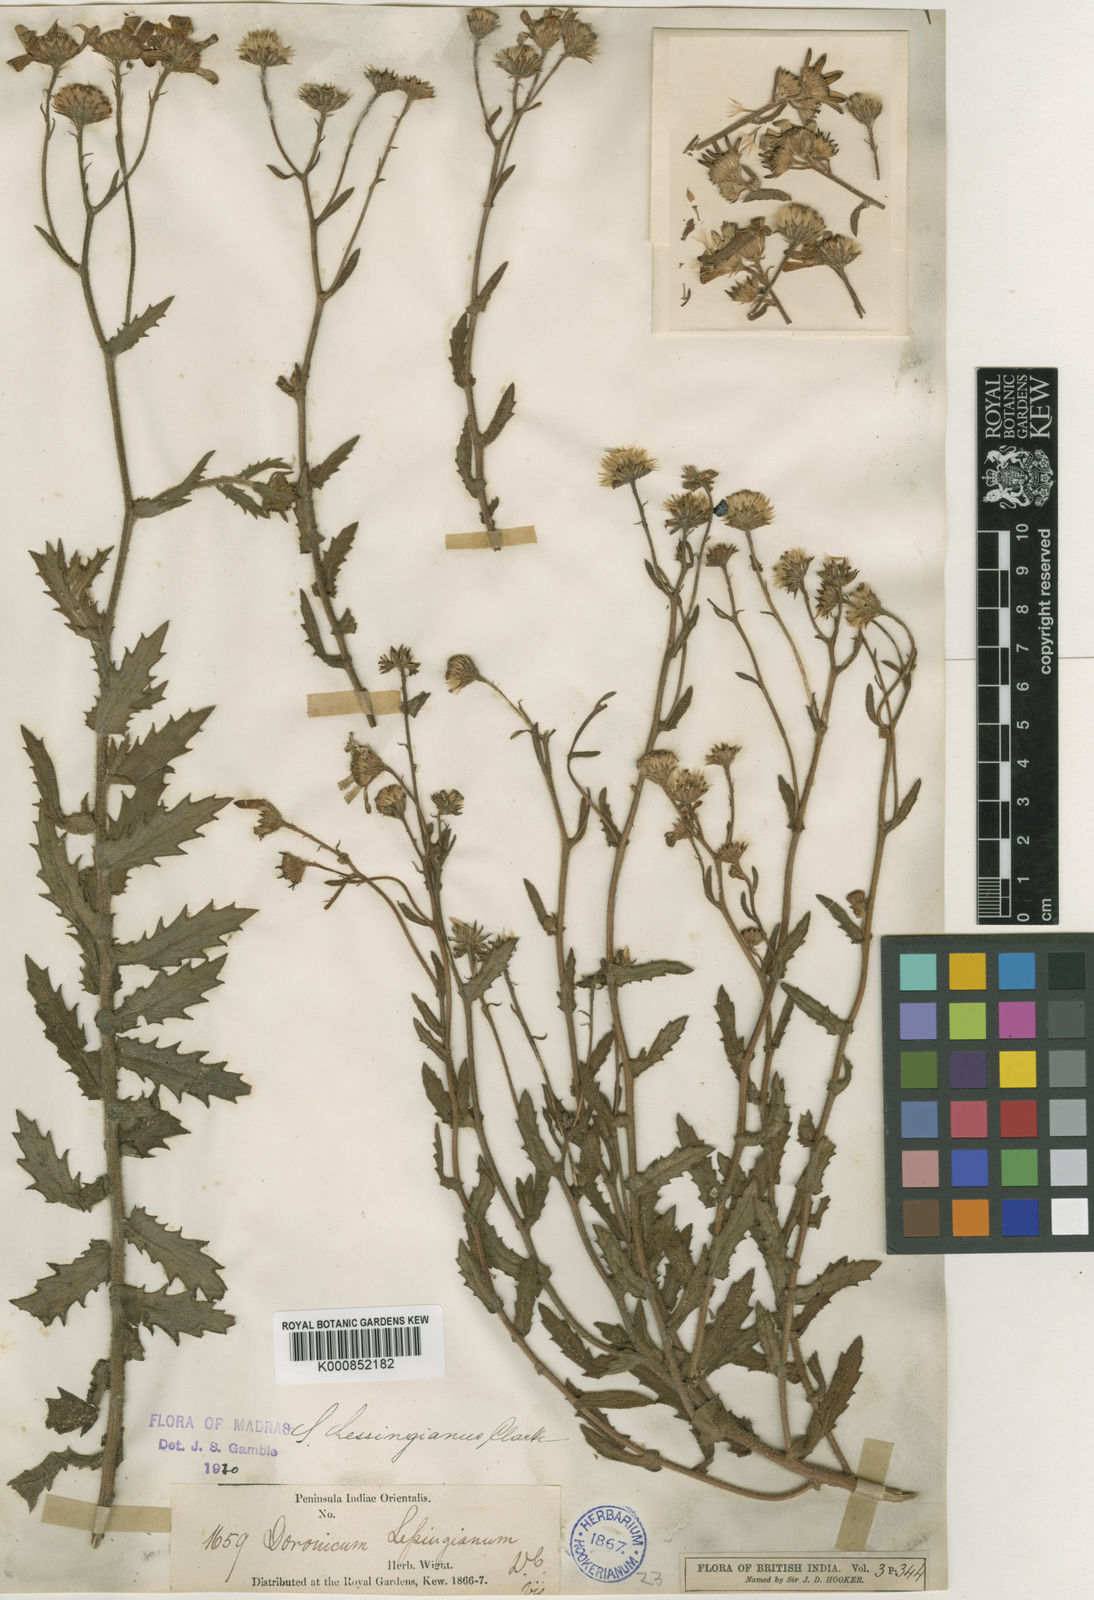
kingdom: Plantae
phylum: Tracheophyta
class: Magnoliopsida
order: Asterales
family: Asteraceae
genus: Senecio
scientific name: Senecio lawsonii
